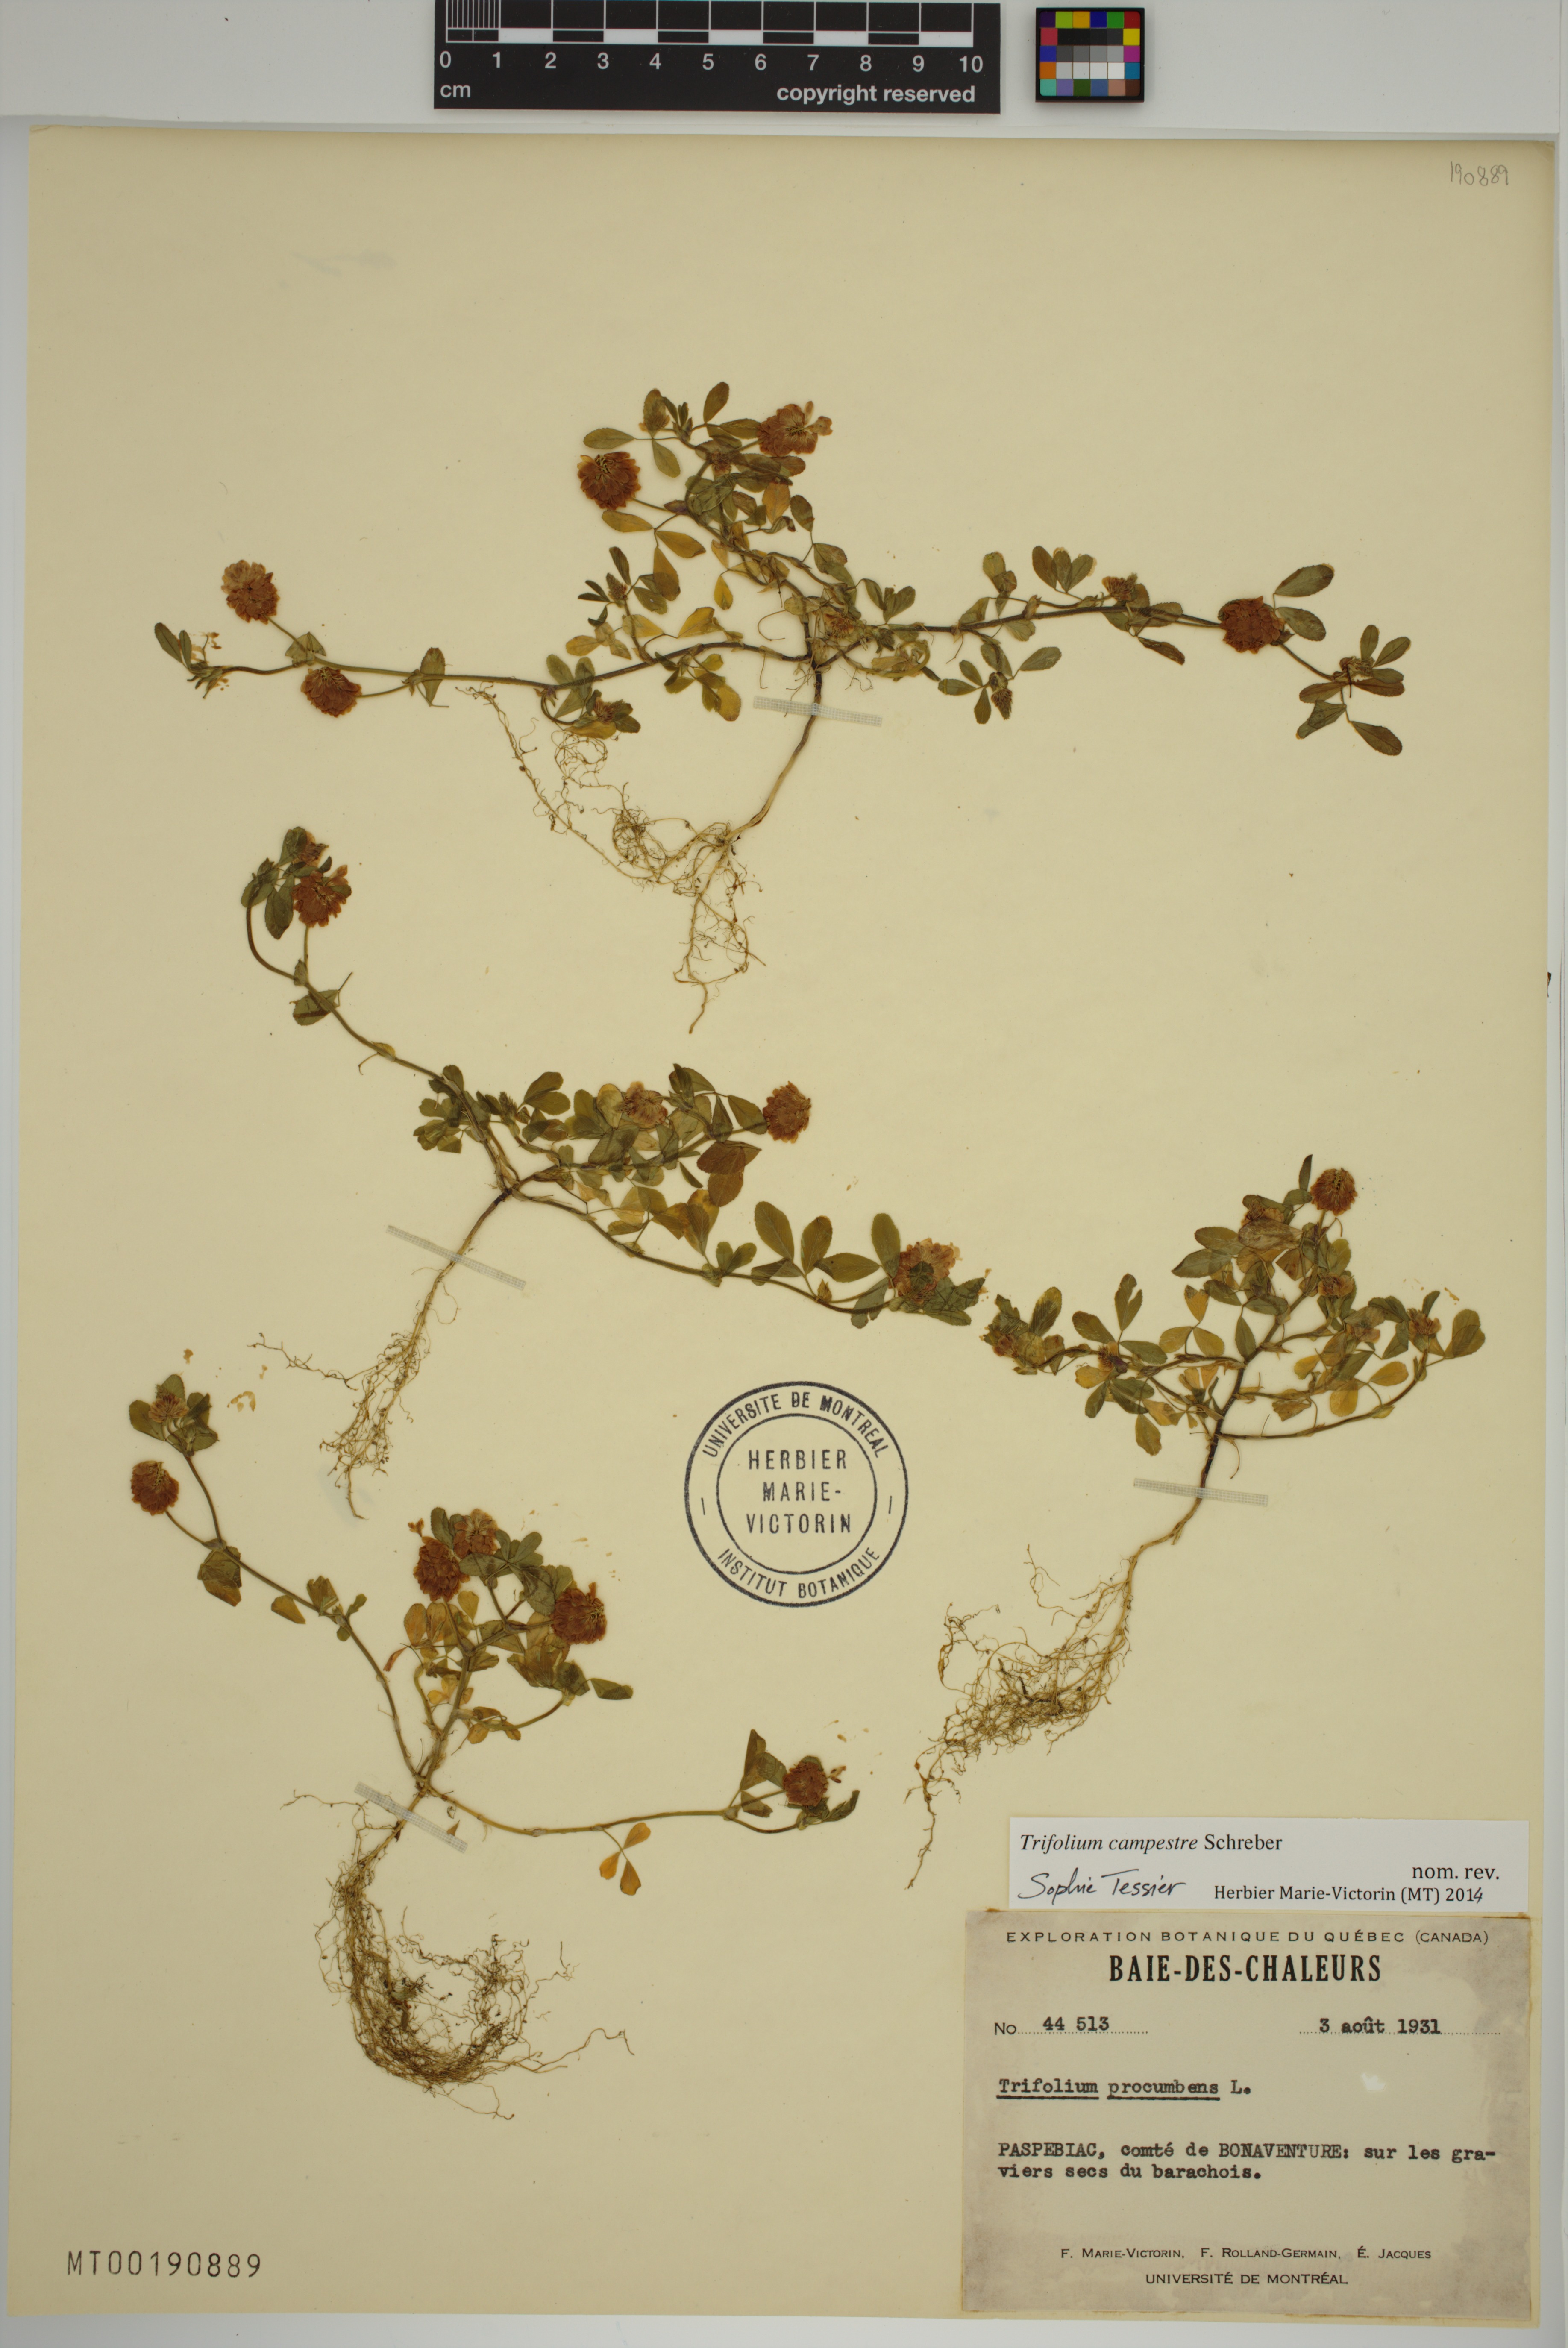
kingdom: Plantae
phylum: Tracheophyta
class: Magnoliopsida
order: Fabales
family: Fabaceae
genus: Trifolium
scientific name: Trifolium campestre
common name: Field clover
